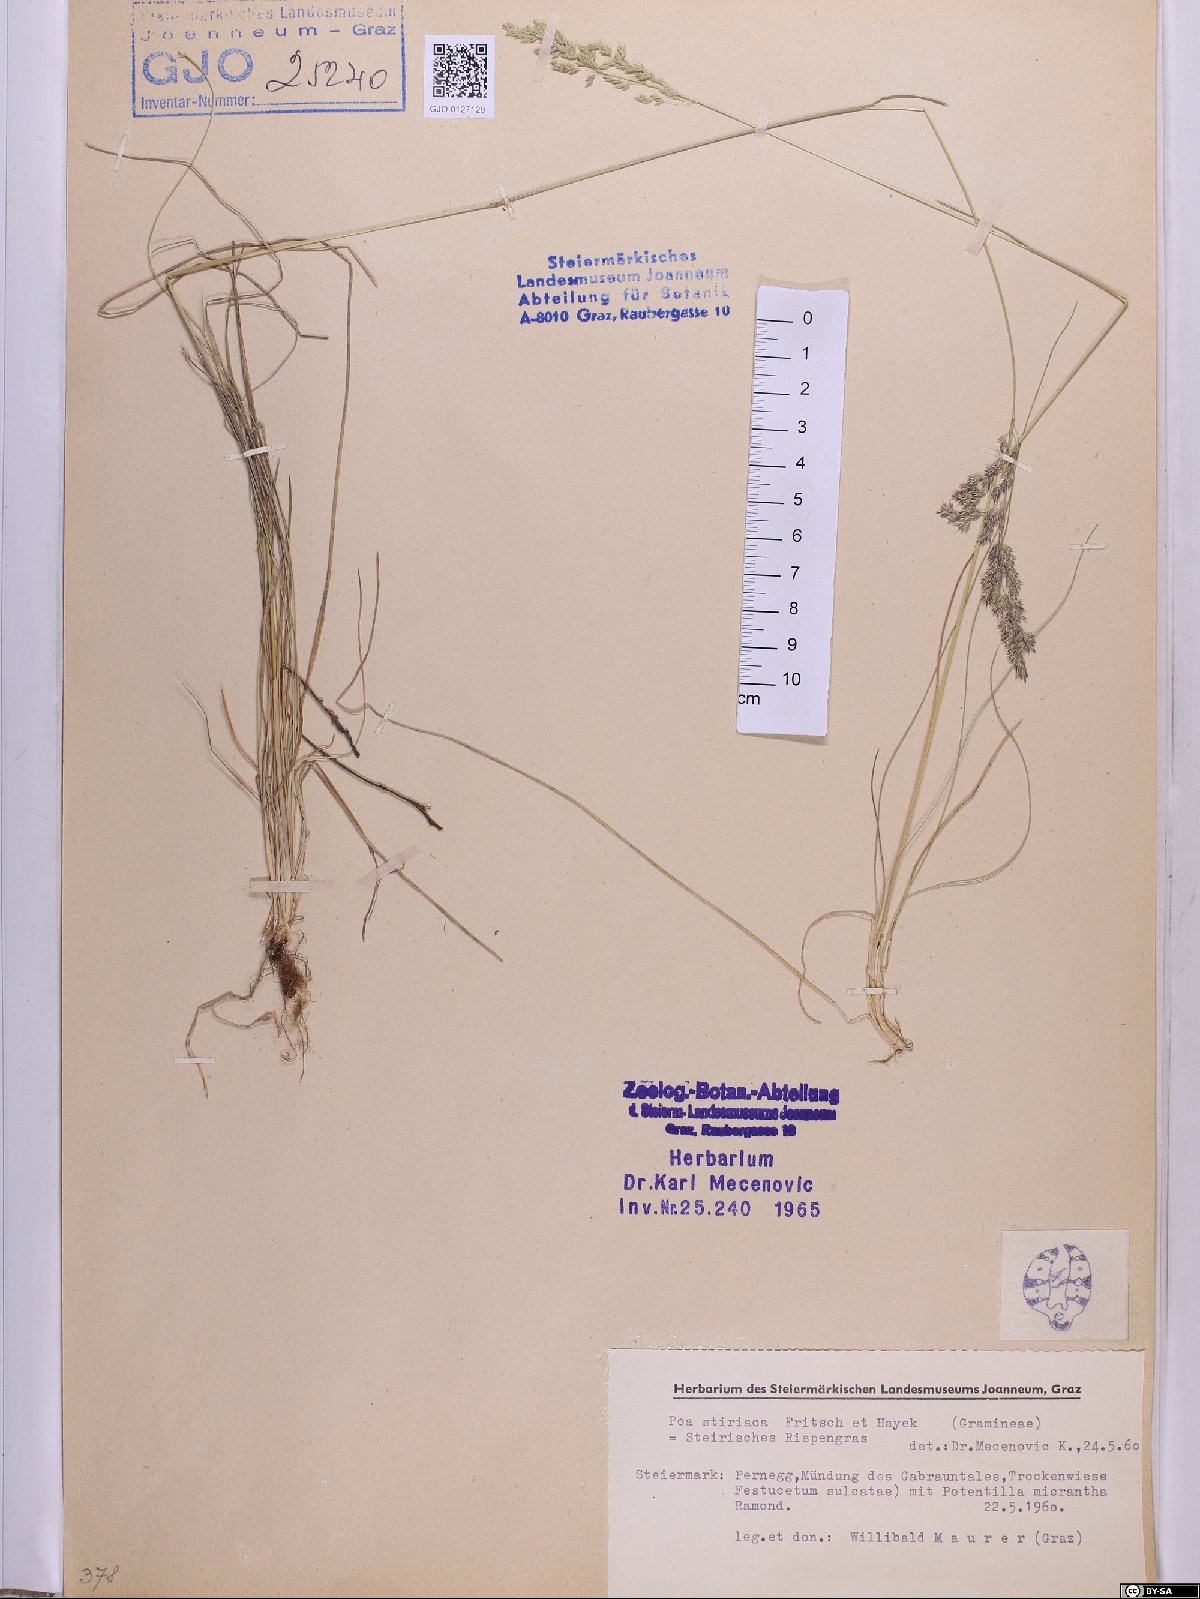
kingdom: Plantae
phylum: Tracheophyta
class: Liliopsida
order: Poales
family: Poaceae
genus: Poa
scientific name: Poa stiriaca
